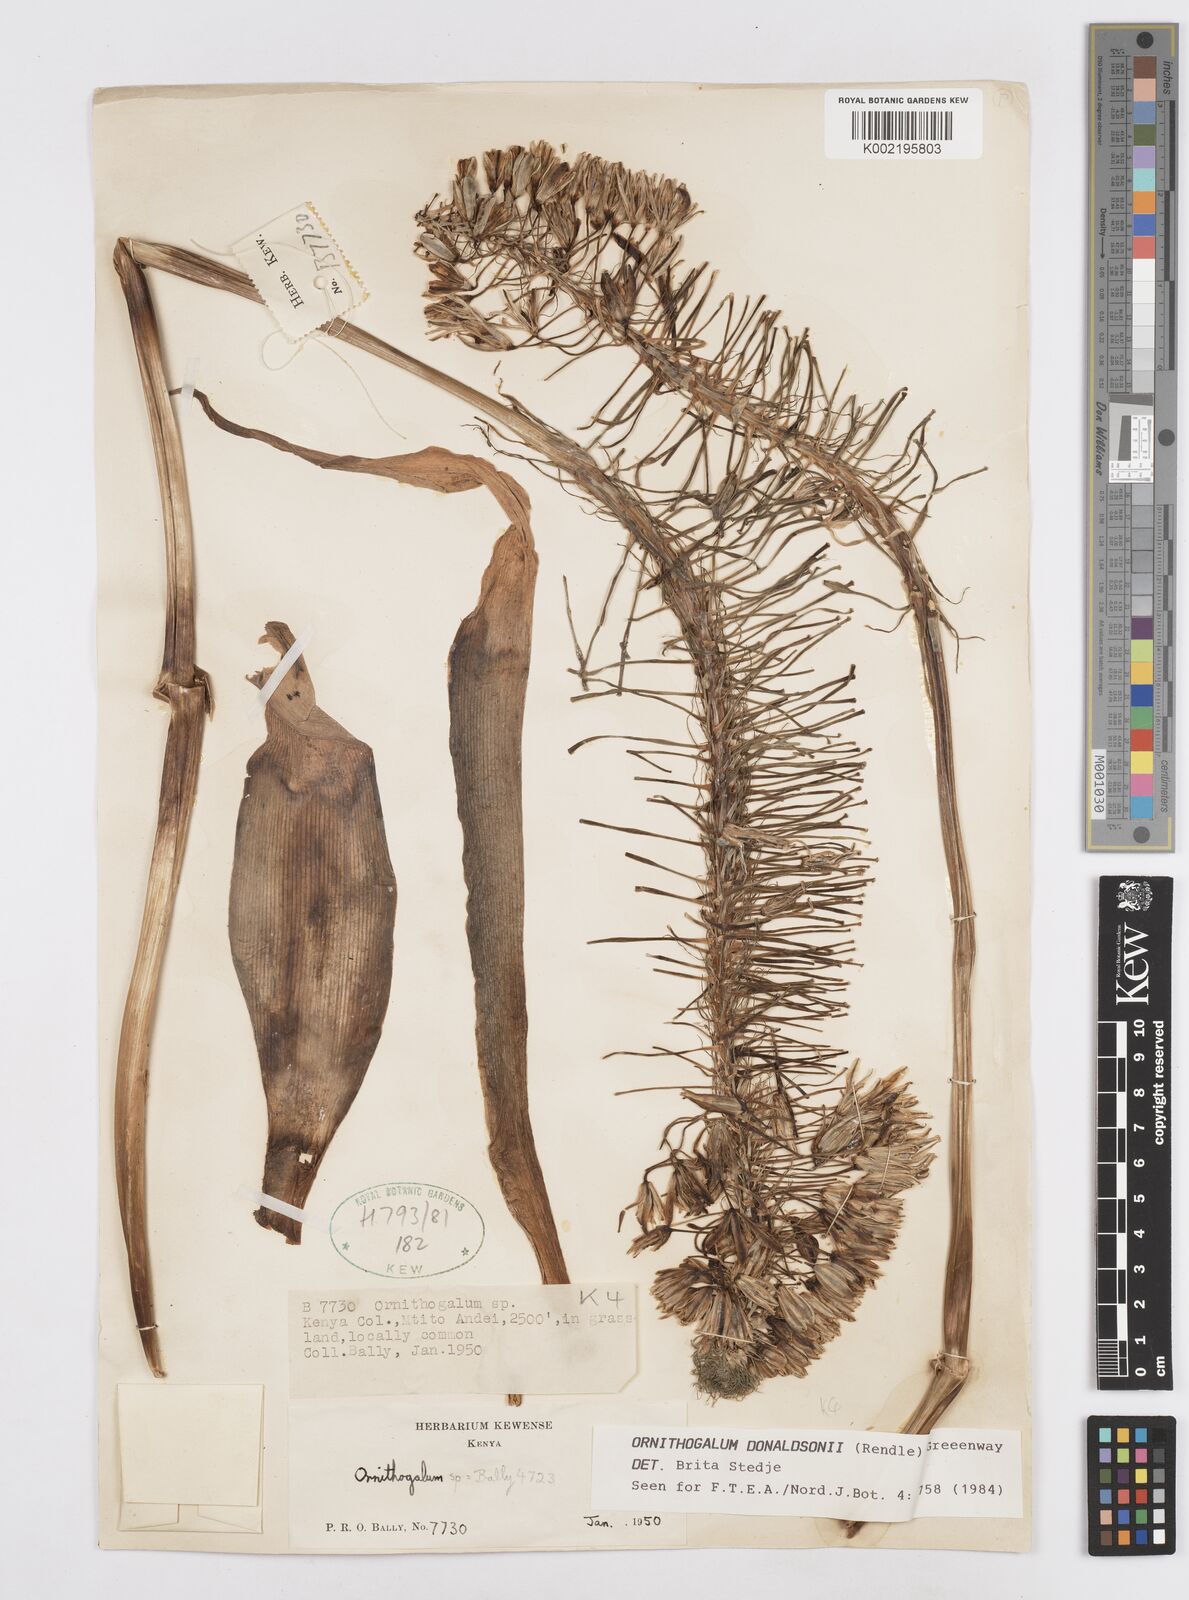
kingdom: Plantae
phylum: Tracheophyta
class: Liliopsida
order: Asparagales
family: Asparagaceae
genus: Albuca
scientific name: Albuca donaldsonii
